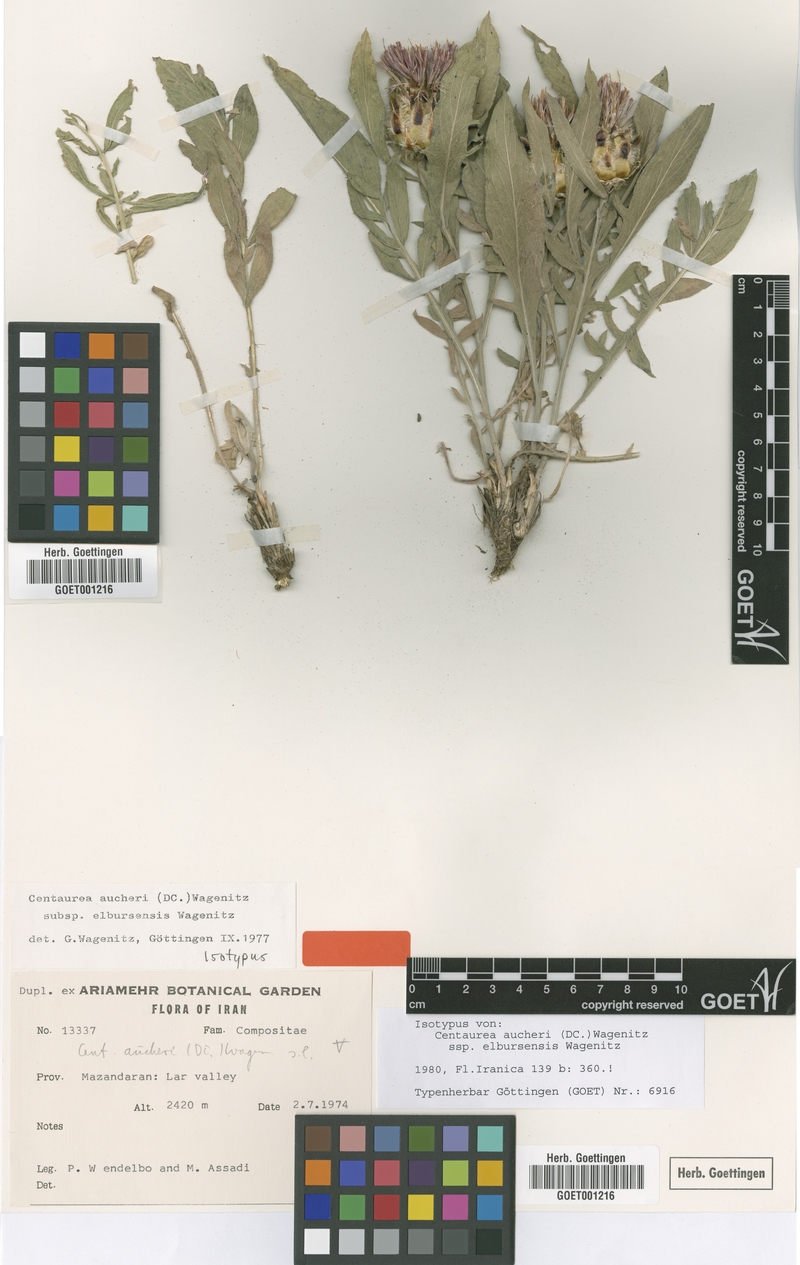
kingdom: Plantae
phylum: Tracheophyta
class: Magnoliopsida
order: Asterales
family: Asteraceae
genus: Centaurea
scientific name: Centaurea assadii
